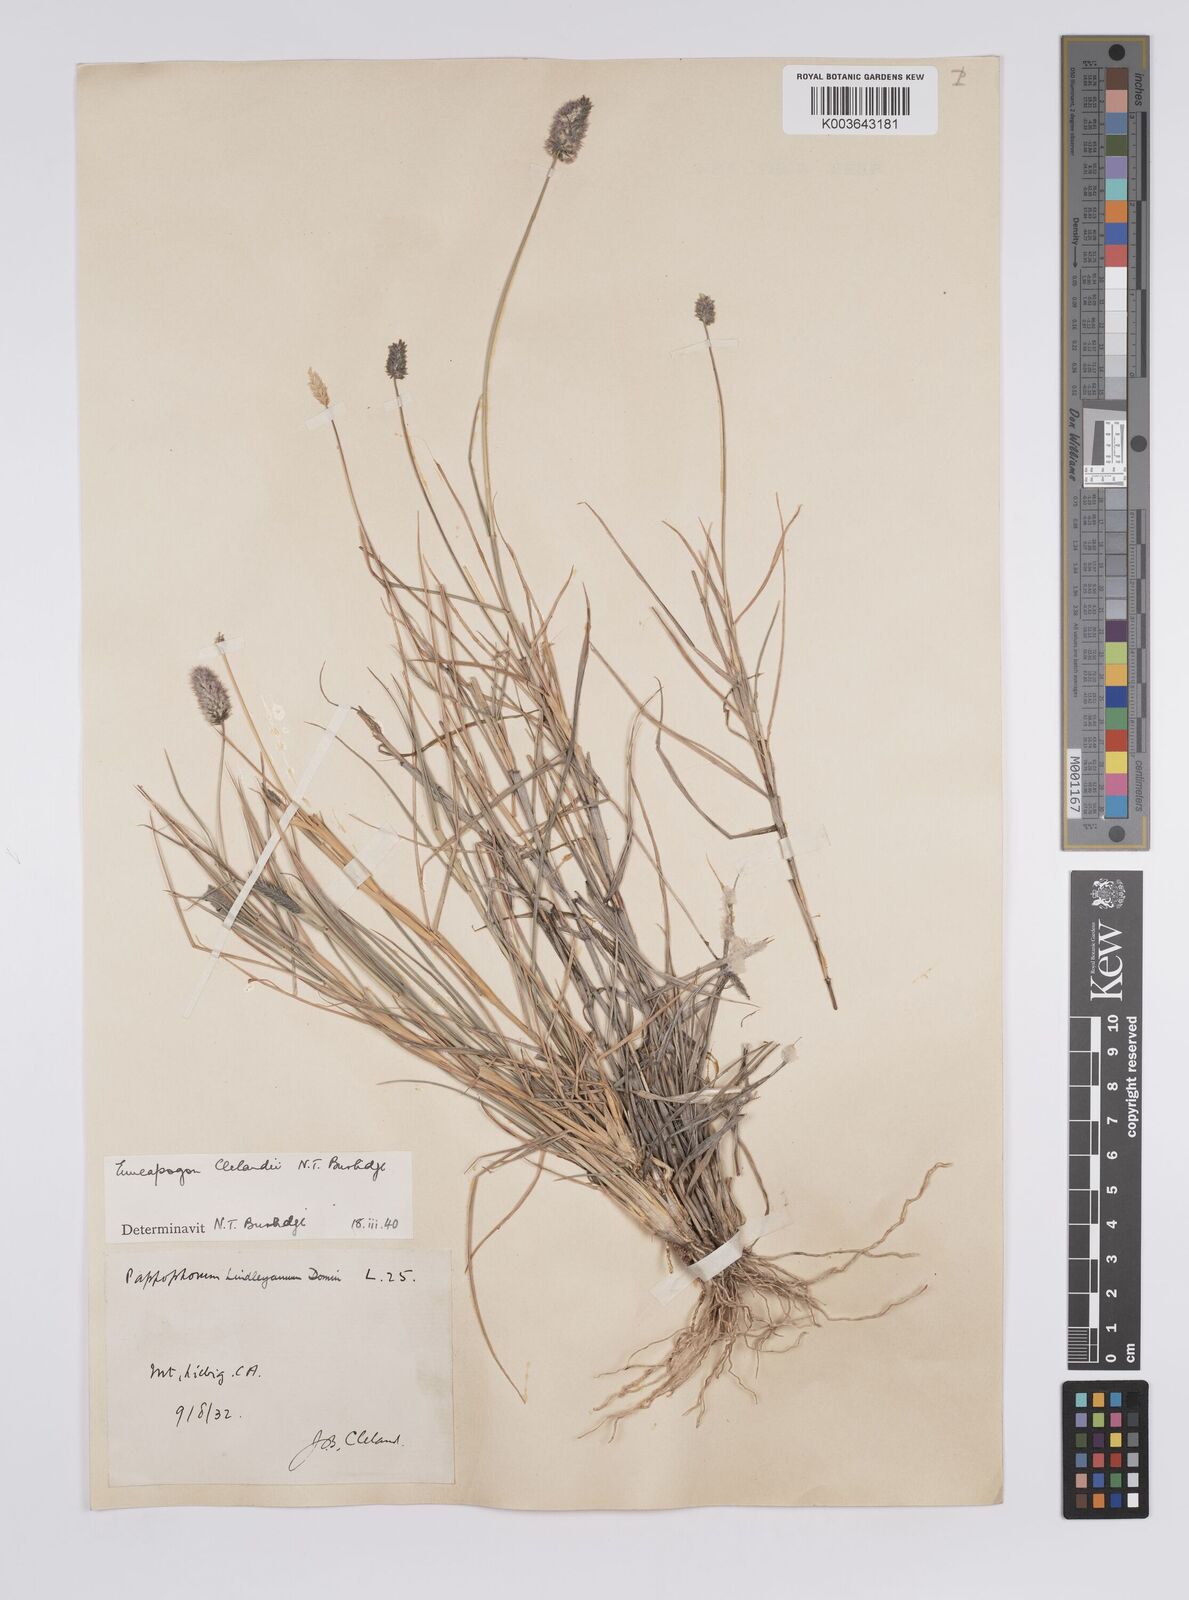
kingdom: Plantae
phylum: Tracheophyta
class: Liliopsida
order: Poales
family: Poaceae
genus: Enneapogon
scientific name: Enneapogon robustissimus
